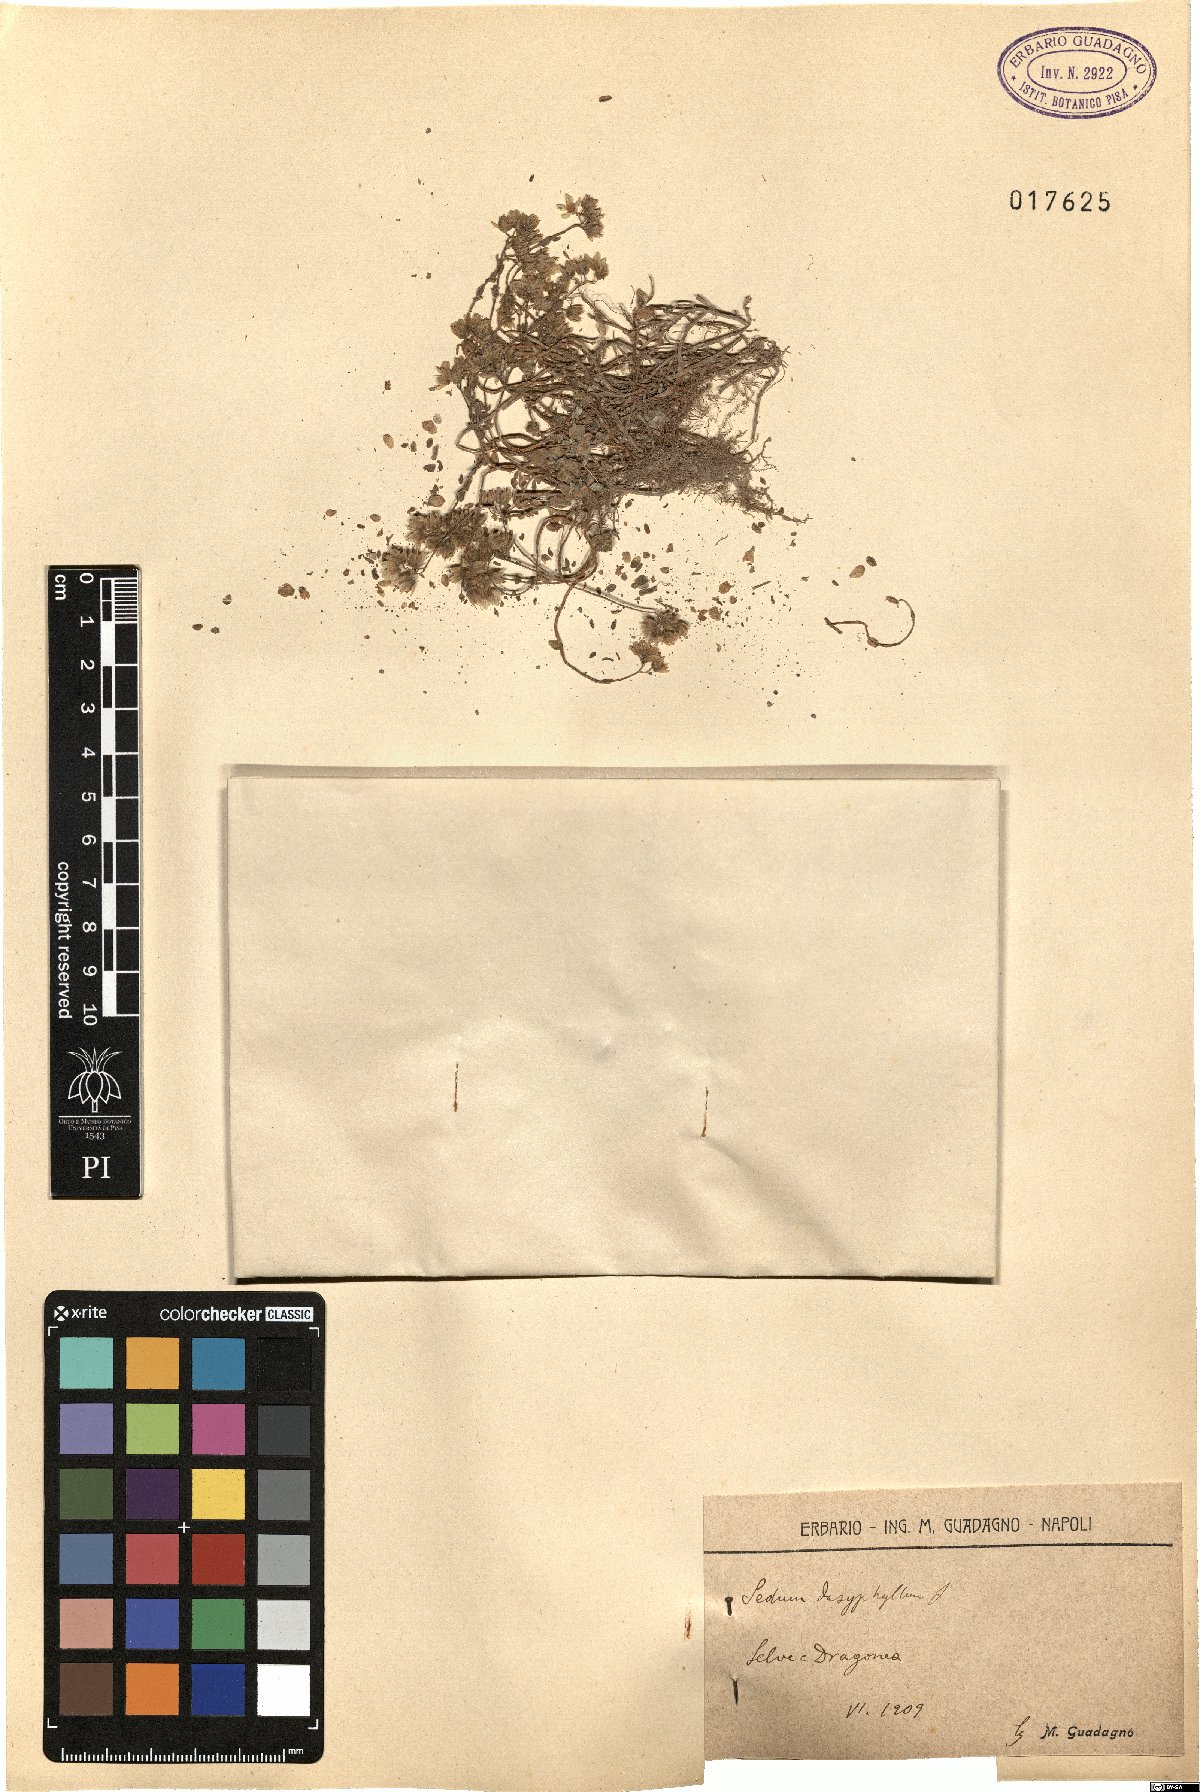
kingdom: Plantae
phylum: Tracheophyta
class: Magnoliopsida
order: Saxifragales
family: Crassulaceae
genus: Sedum
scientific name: Sedum dasyphyllum
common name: Thick-leaf stonecrop
